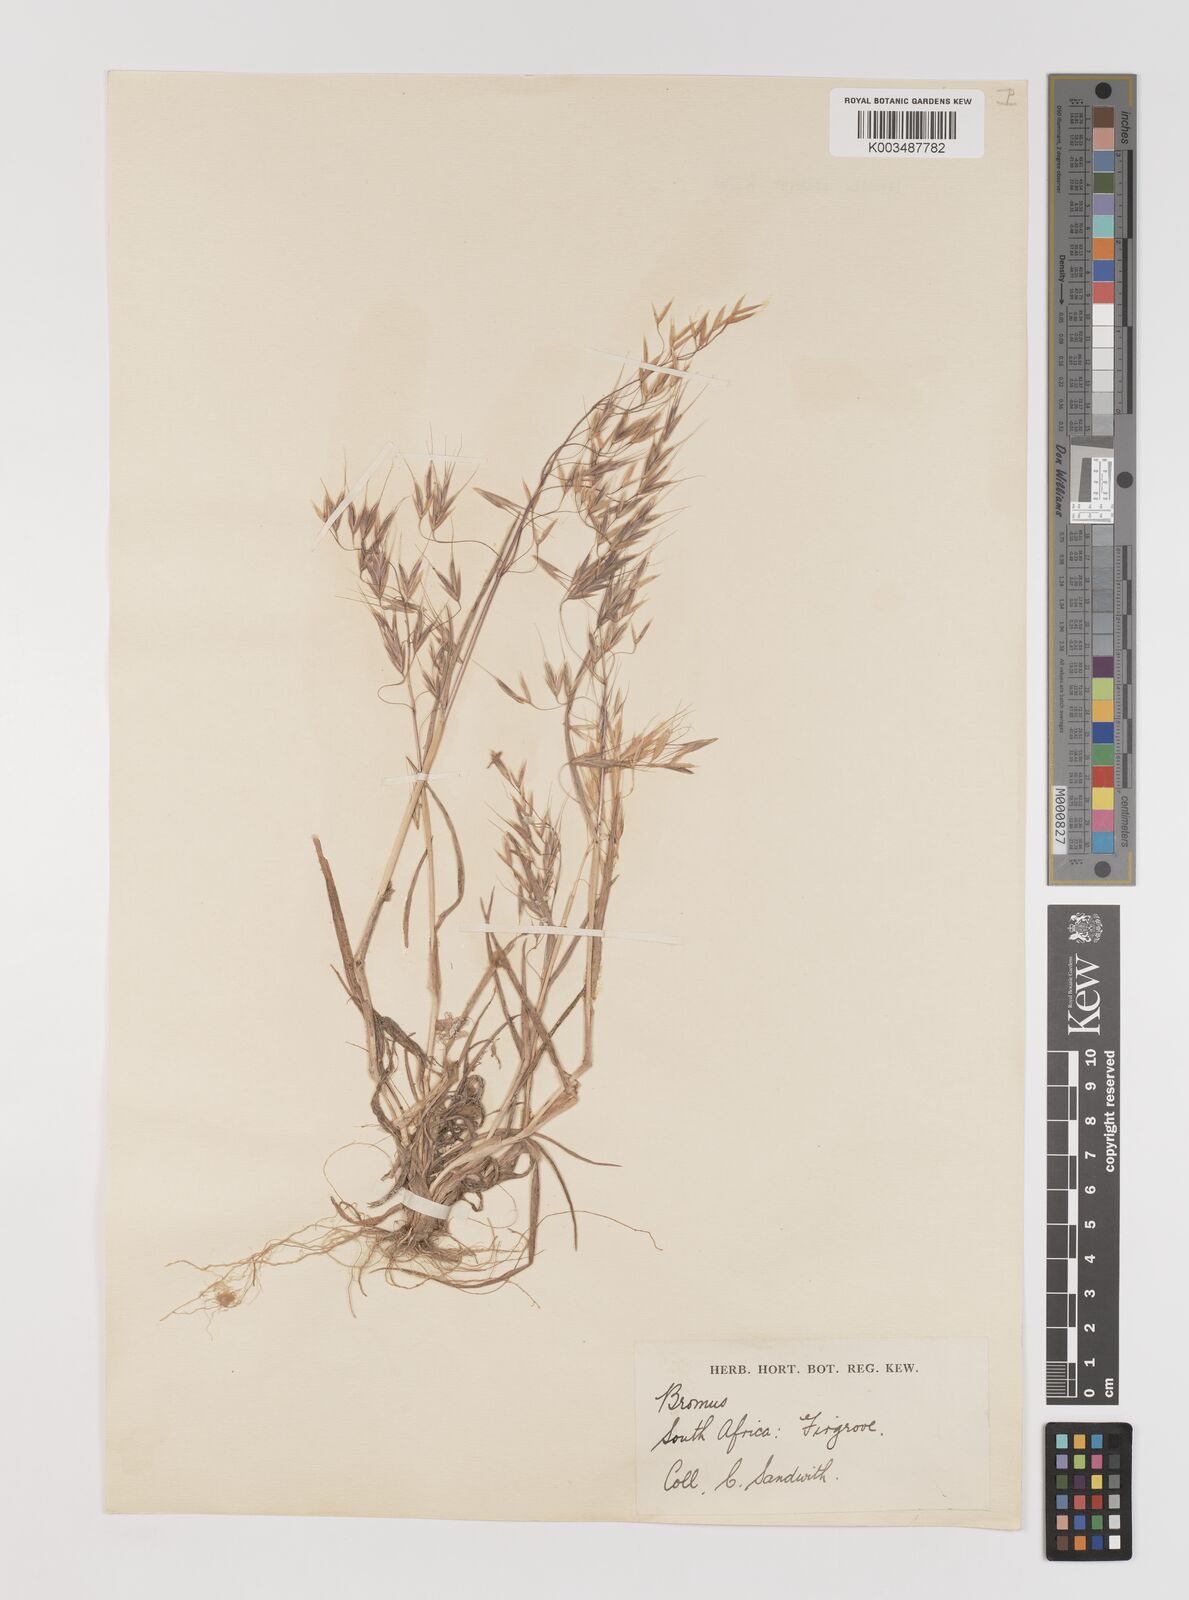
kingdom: Plantae
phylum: Tracheophyta
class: Liliopsida
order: Poales
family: Poaceae
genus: Bromus
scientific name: Bromus pectinatus
